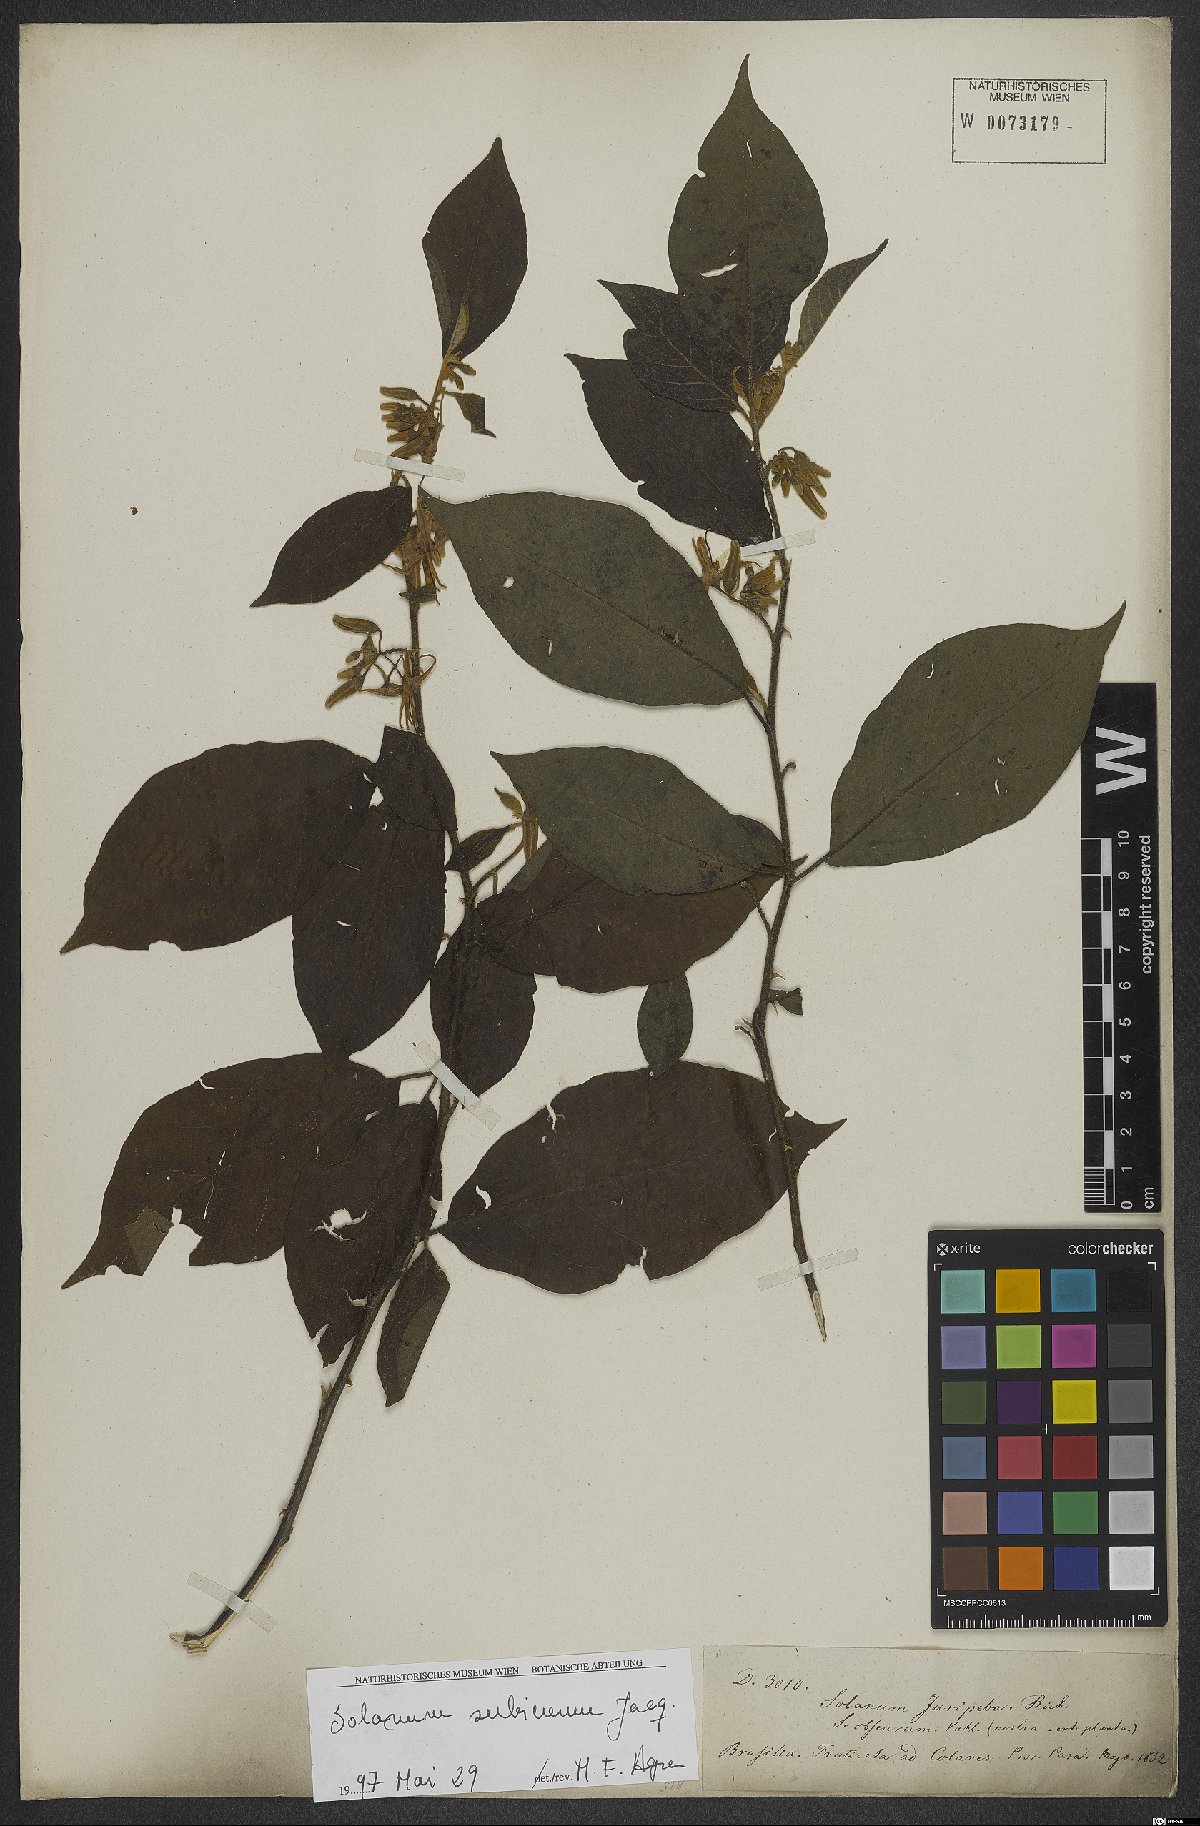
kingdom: Plantae
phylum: Tracheophyta
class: Magnoliopsida
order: Solanales
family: Solanaceae
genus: Solanum
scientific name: Solanum subinerme
